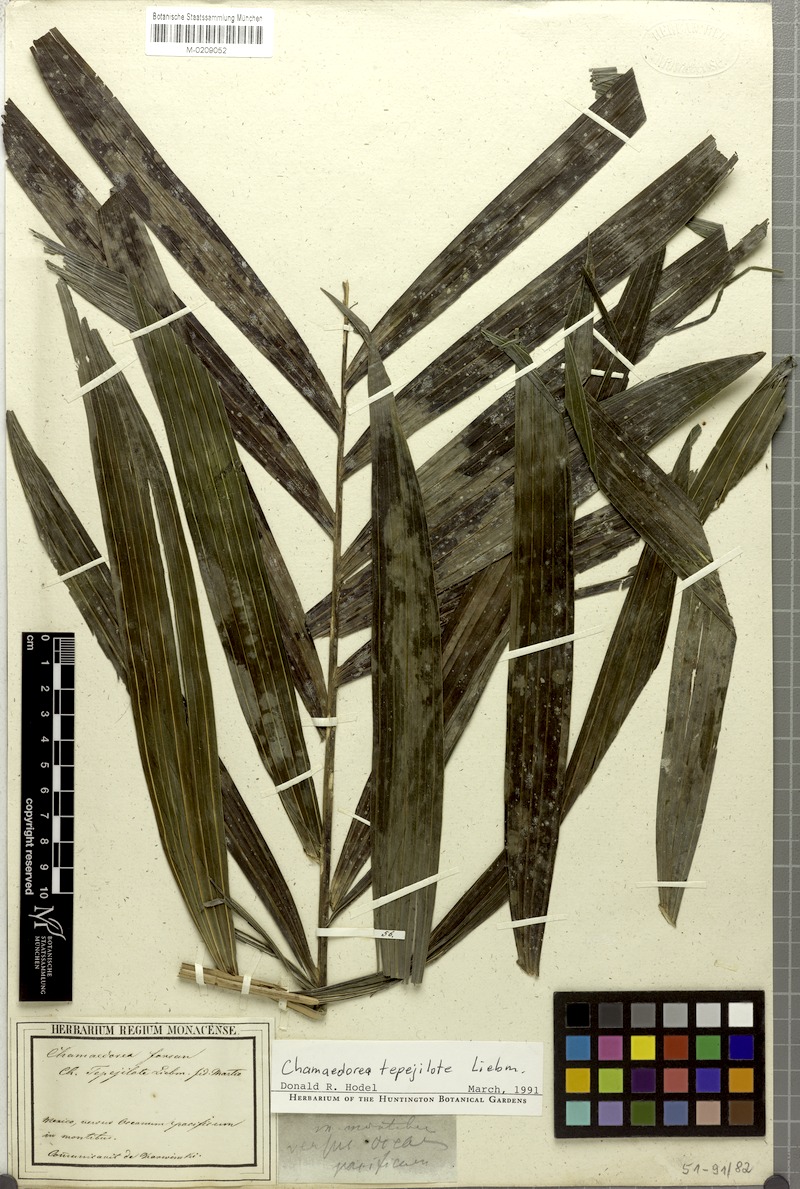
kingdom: Plantae
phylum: Tracheophyta
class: Liliopsida
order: Arecales
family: Arecaceae
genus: Chamaedorea
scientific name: Chamaedorea tepejilote
